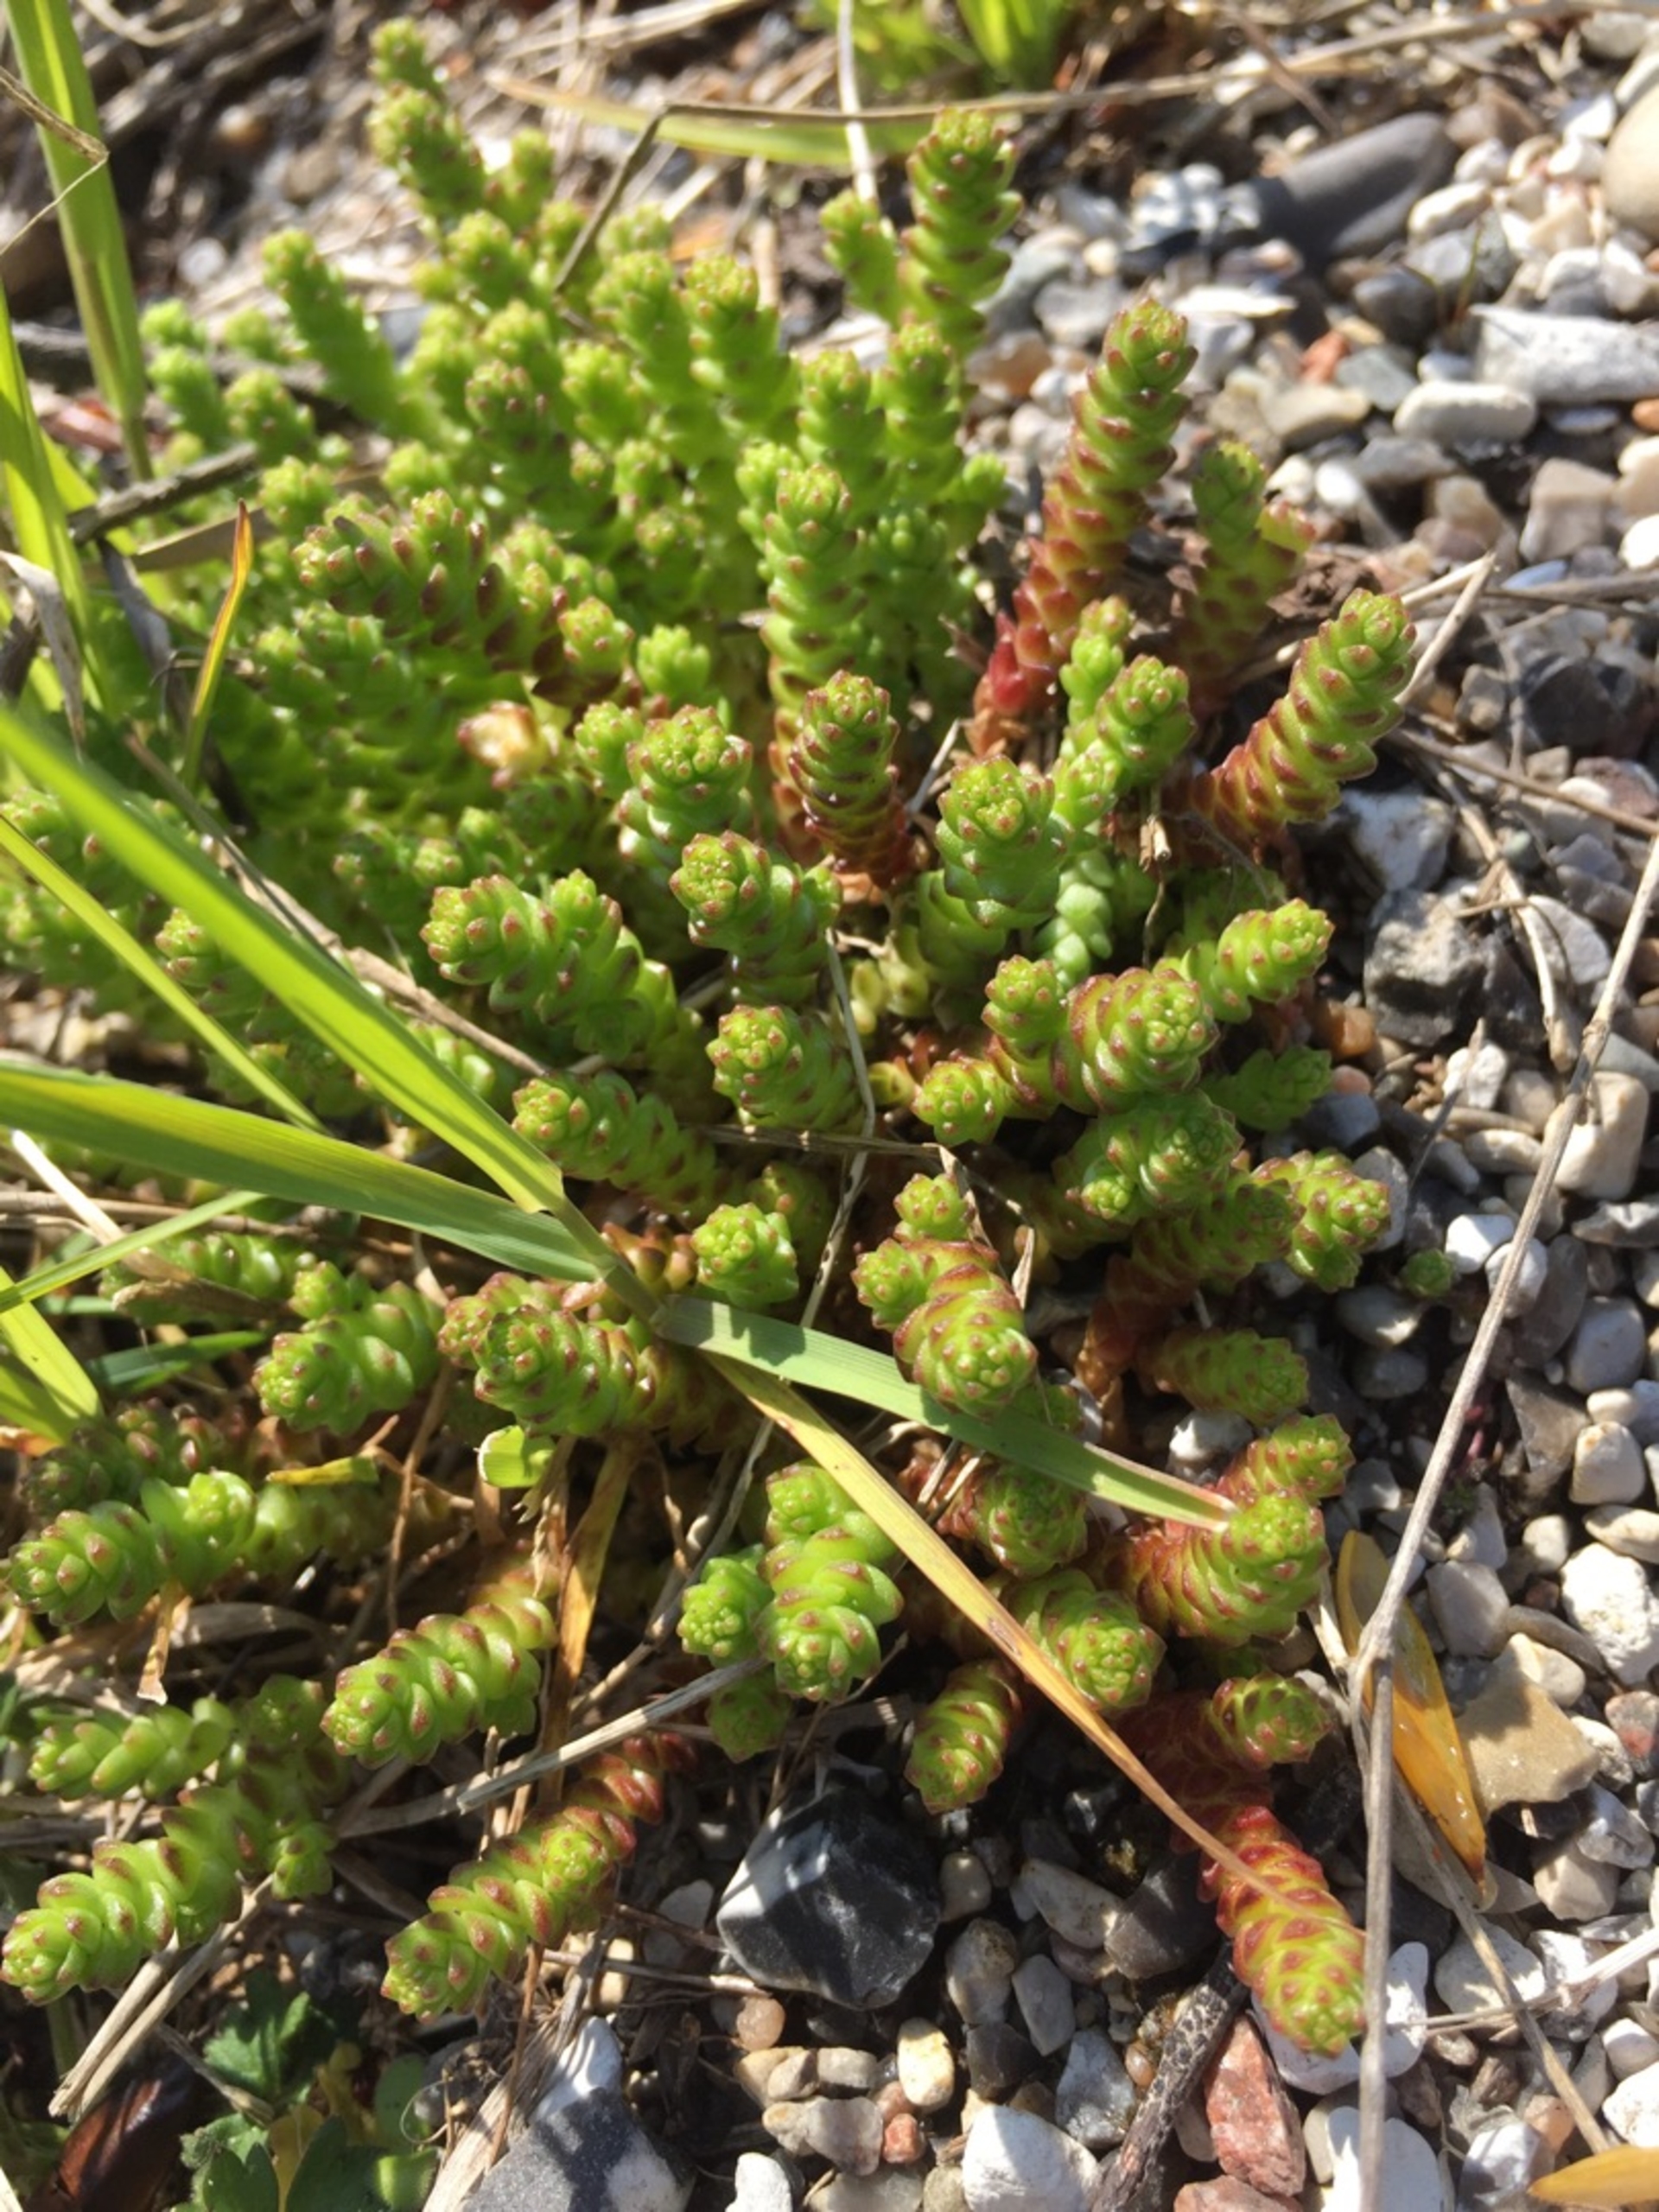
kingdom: Plantae
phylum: Tracheophyta
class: Magnoliopsida
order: Saxifragales
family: Crassulaceae
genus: Sedum
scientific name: Sedum acre
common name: Bidende stenurt
